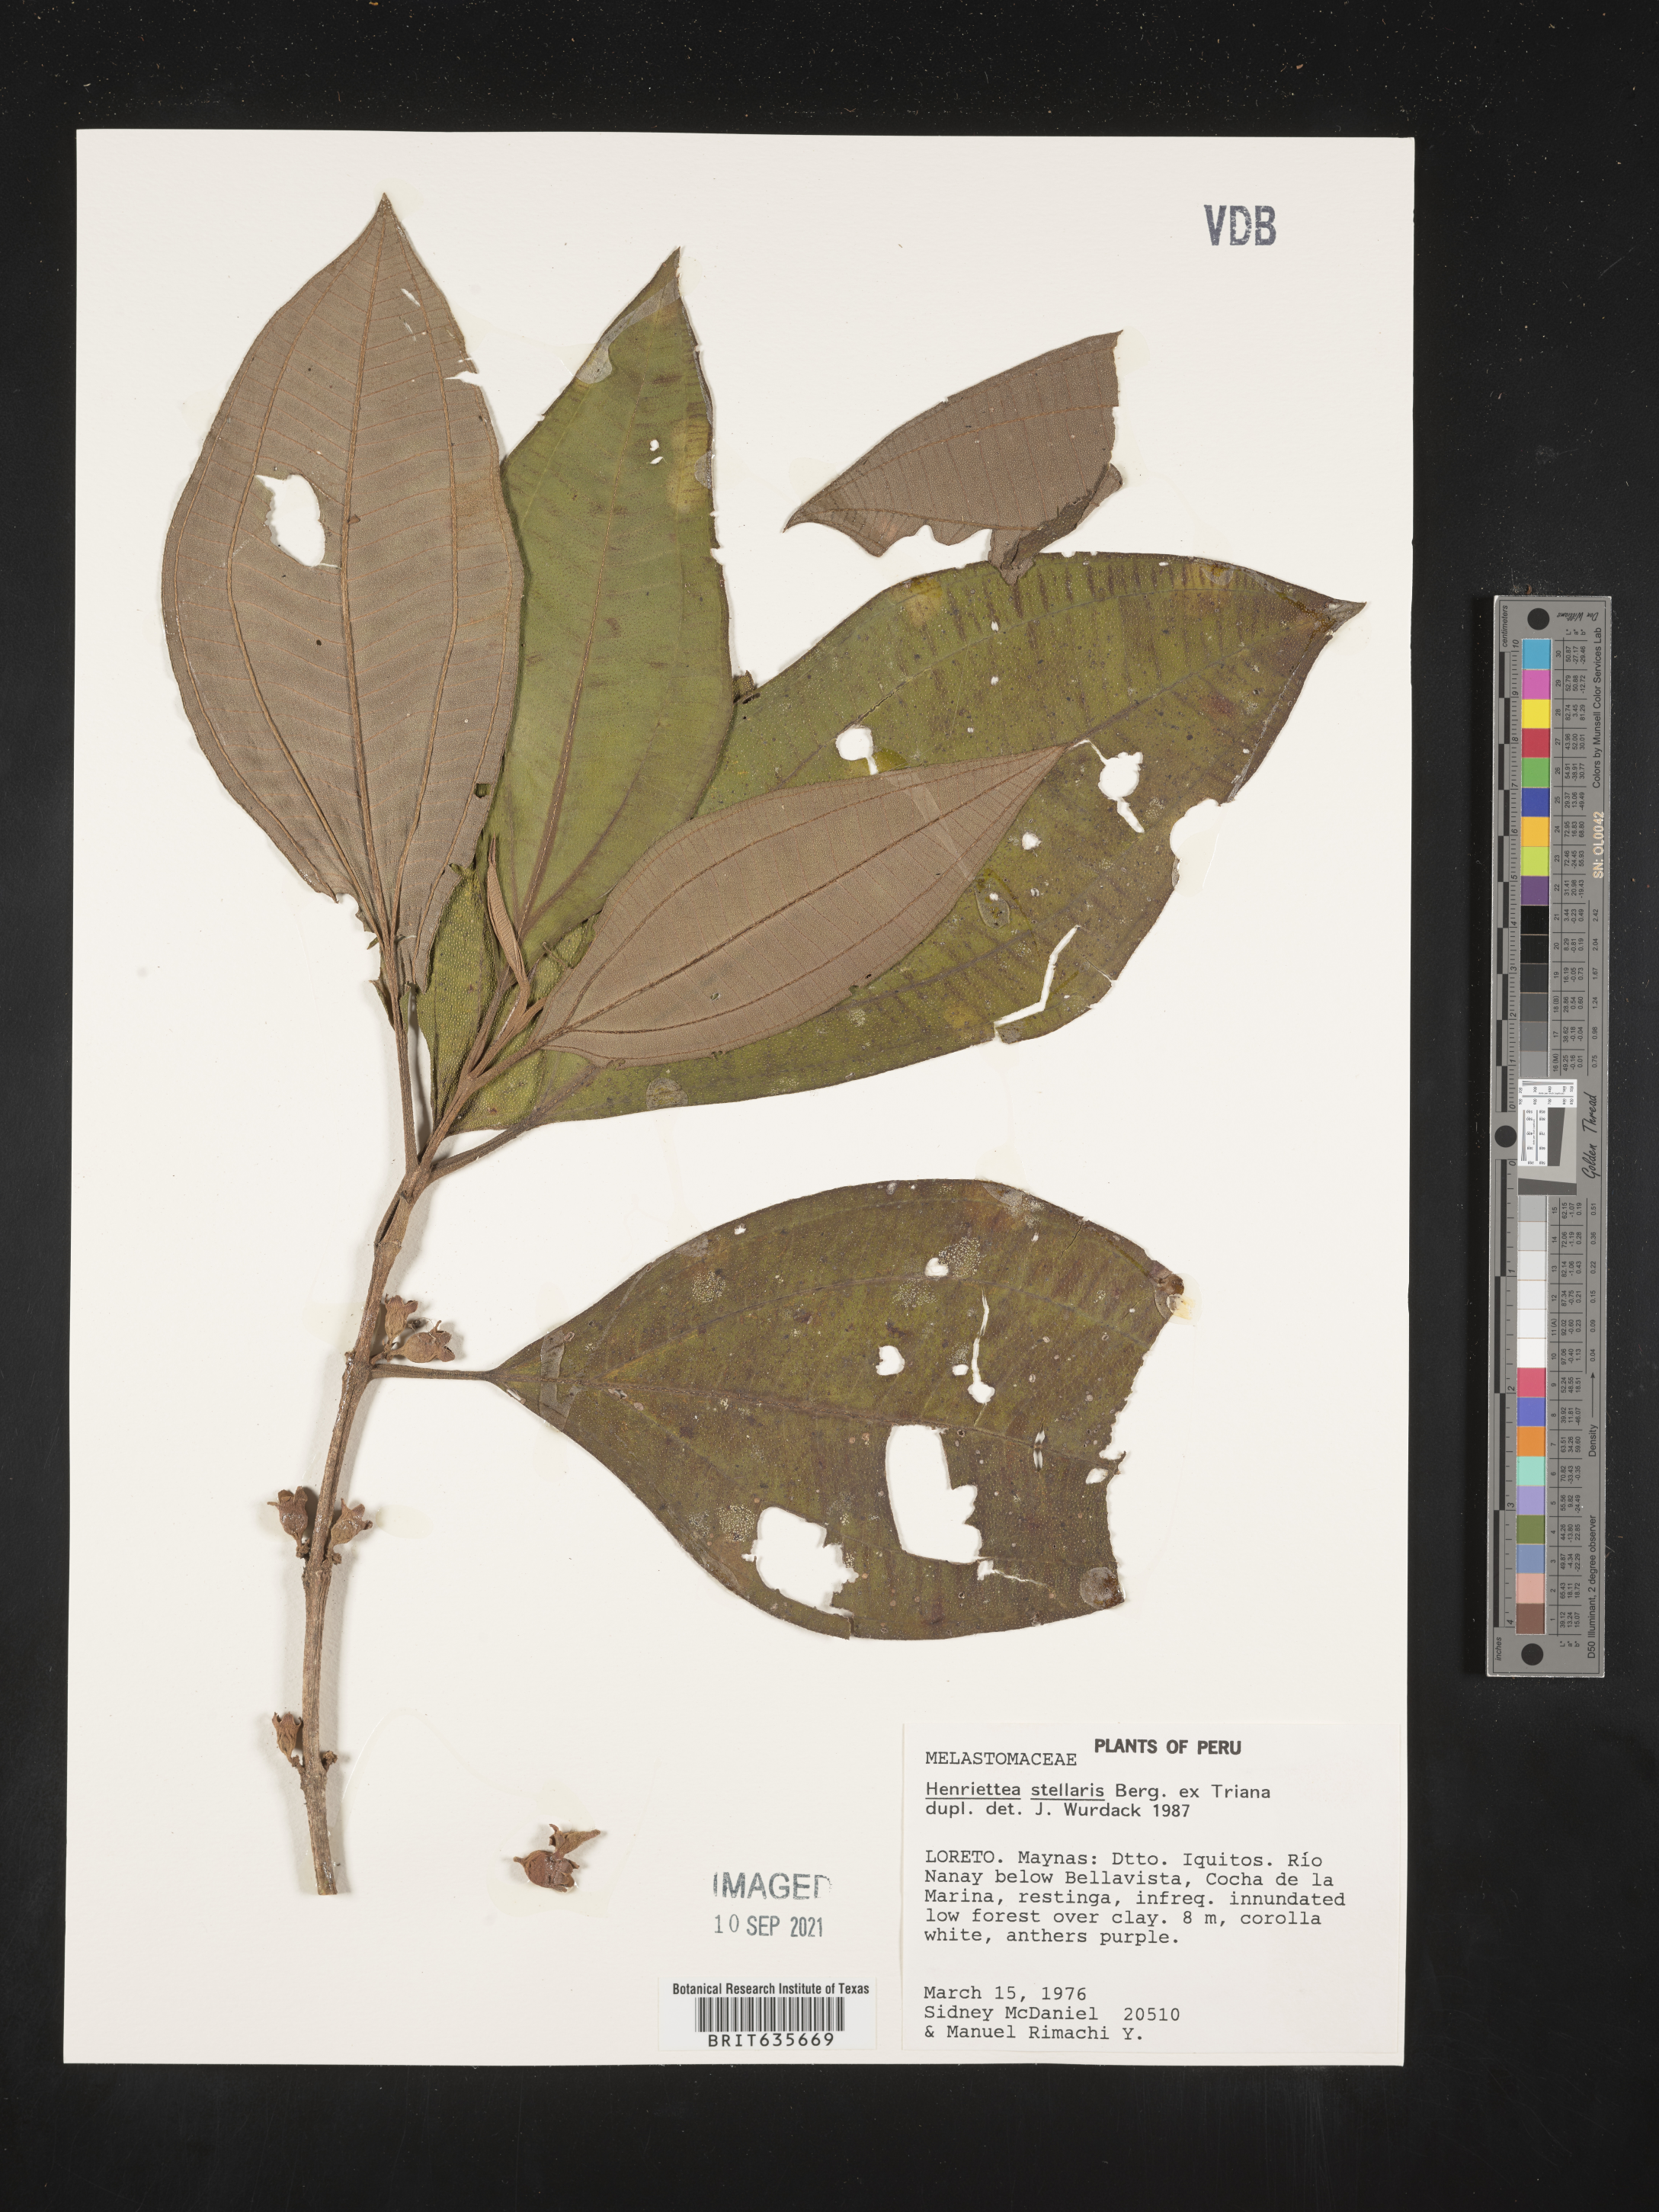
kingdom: Plantae
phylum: Tracheophyta
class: Magnoliopsida
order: Myrtales
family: Melastomataceae
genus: Henriettea
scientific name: Henriettea
